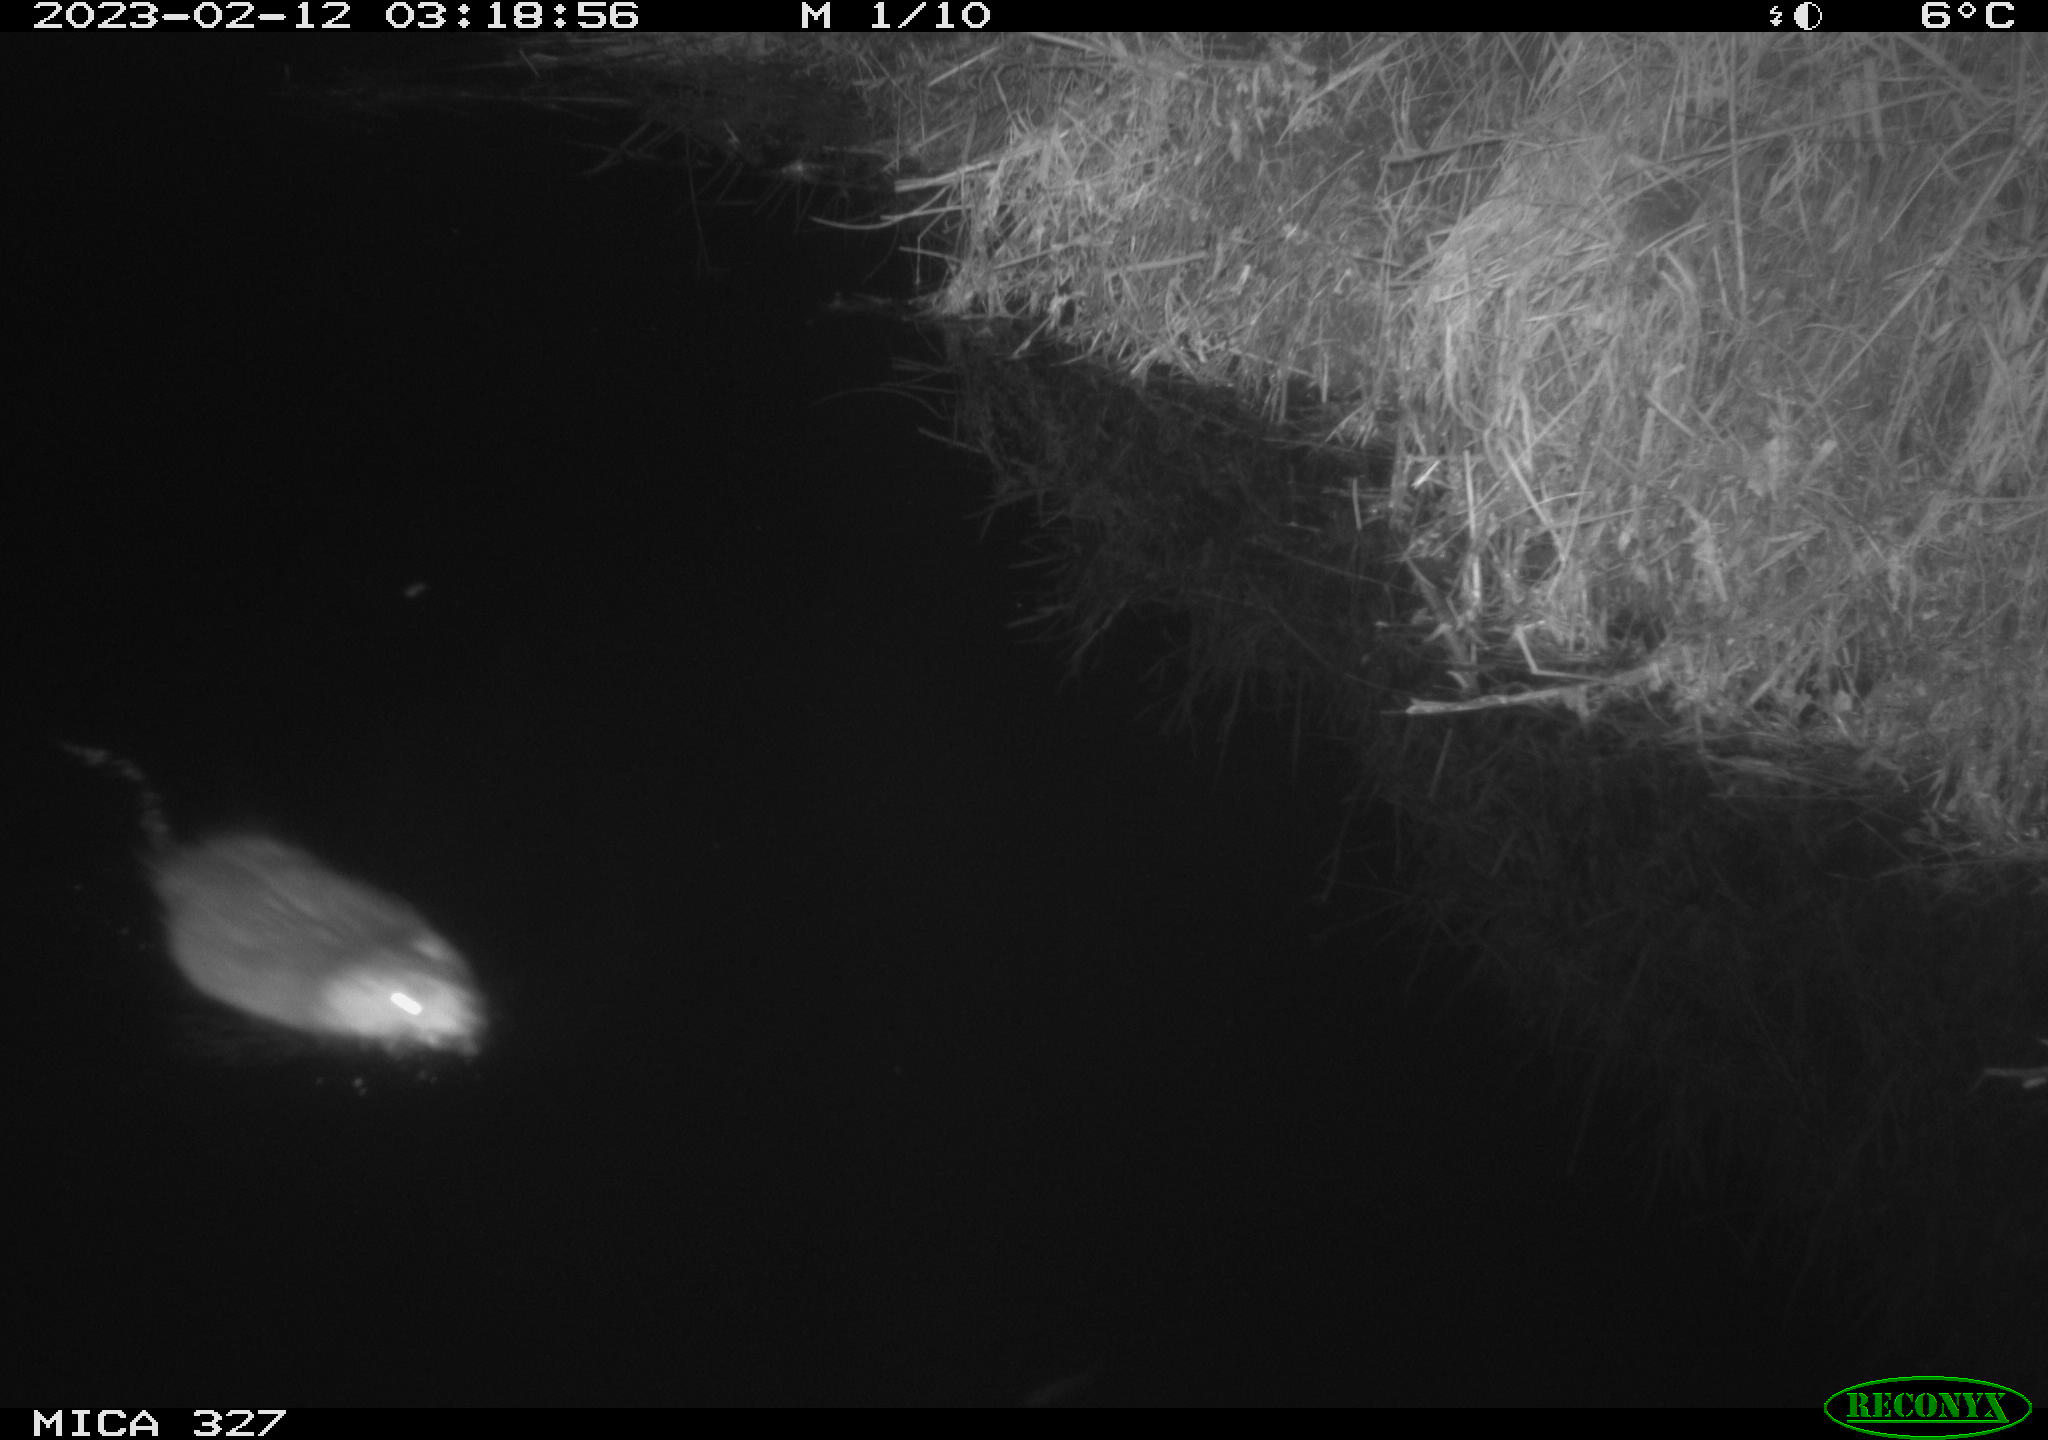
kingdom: Animalia
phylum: Chordata
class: Mammalia
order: Rodentia
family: Cricetidae
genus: Ondatra
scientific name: Ondatra zibethicus
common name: Muskrat
